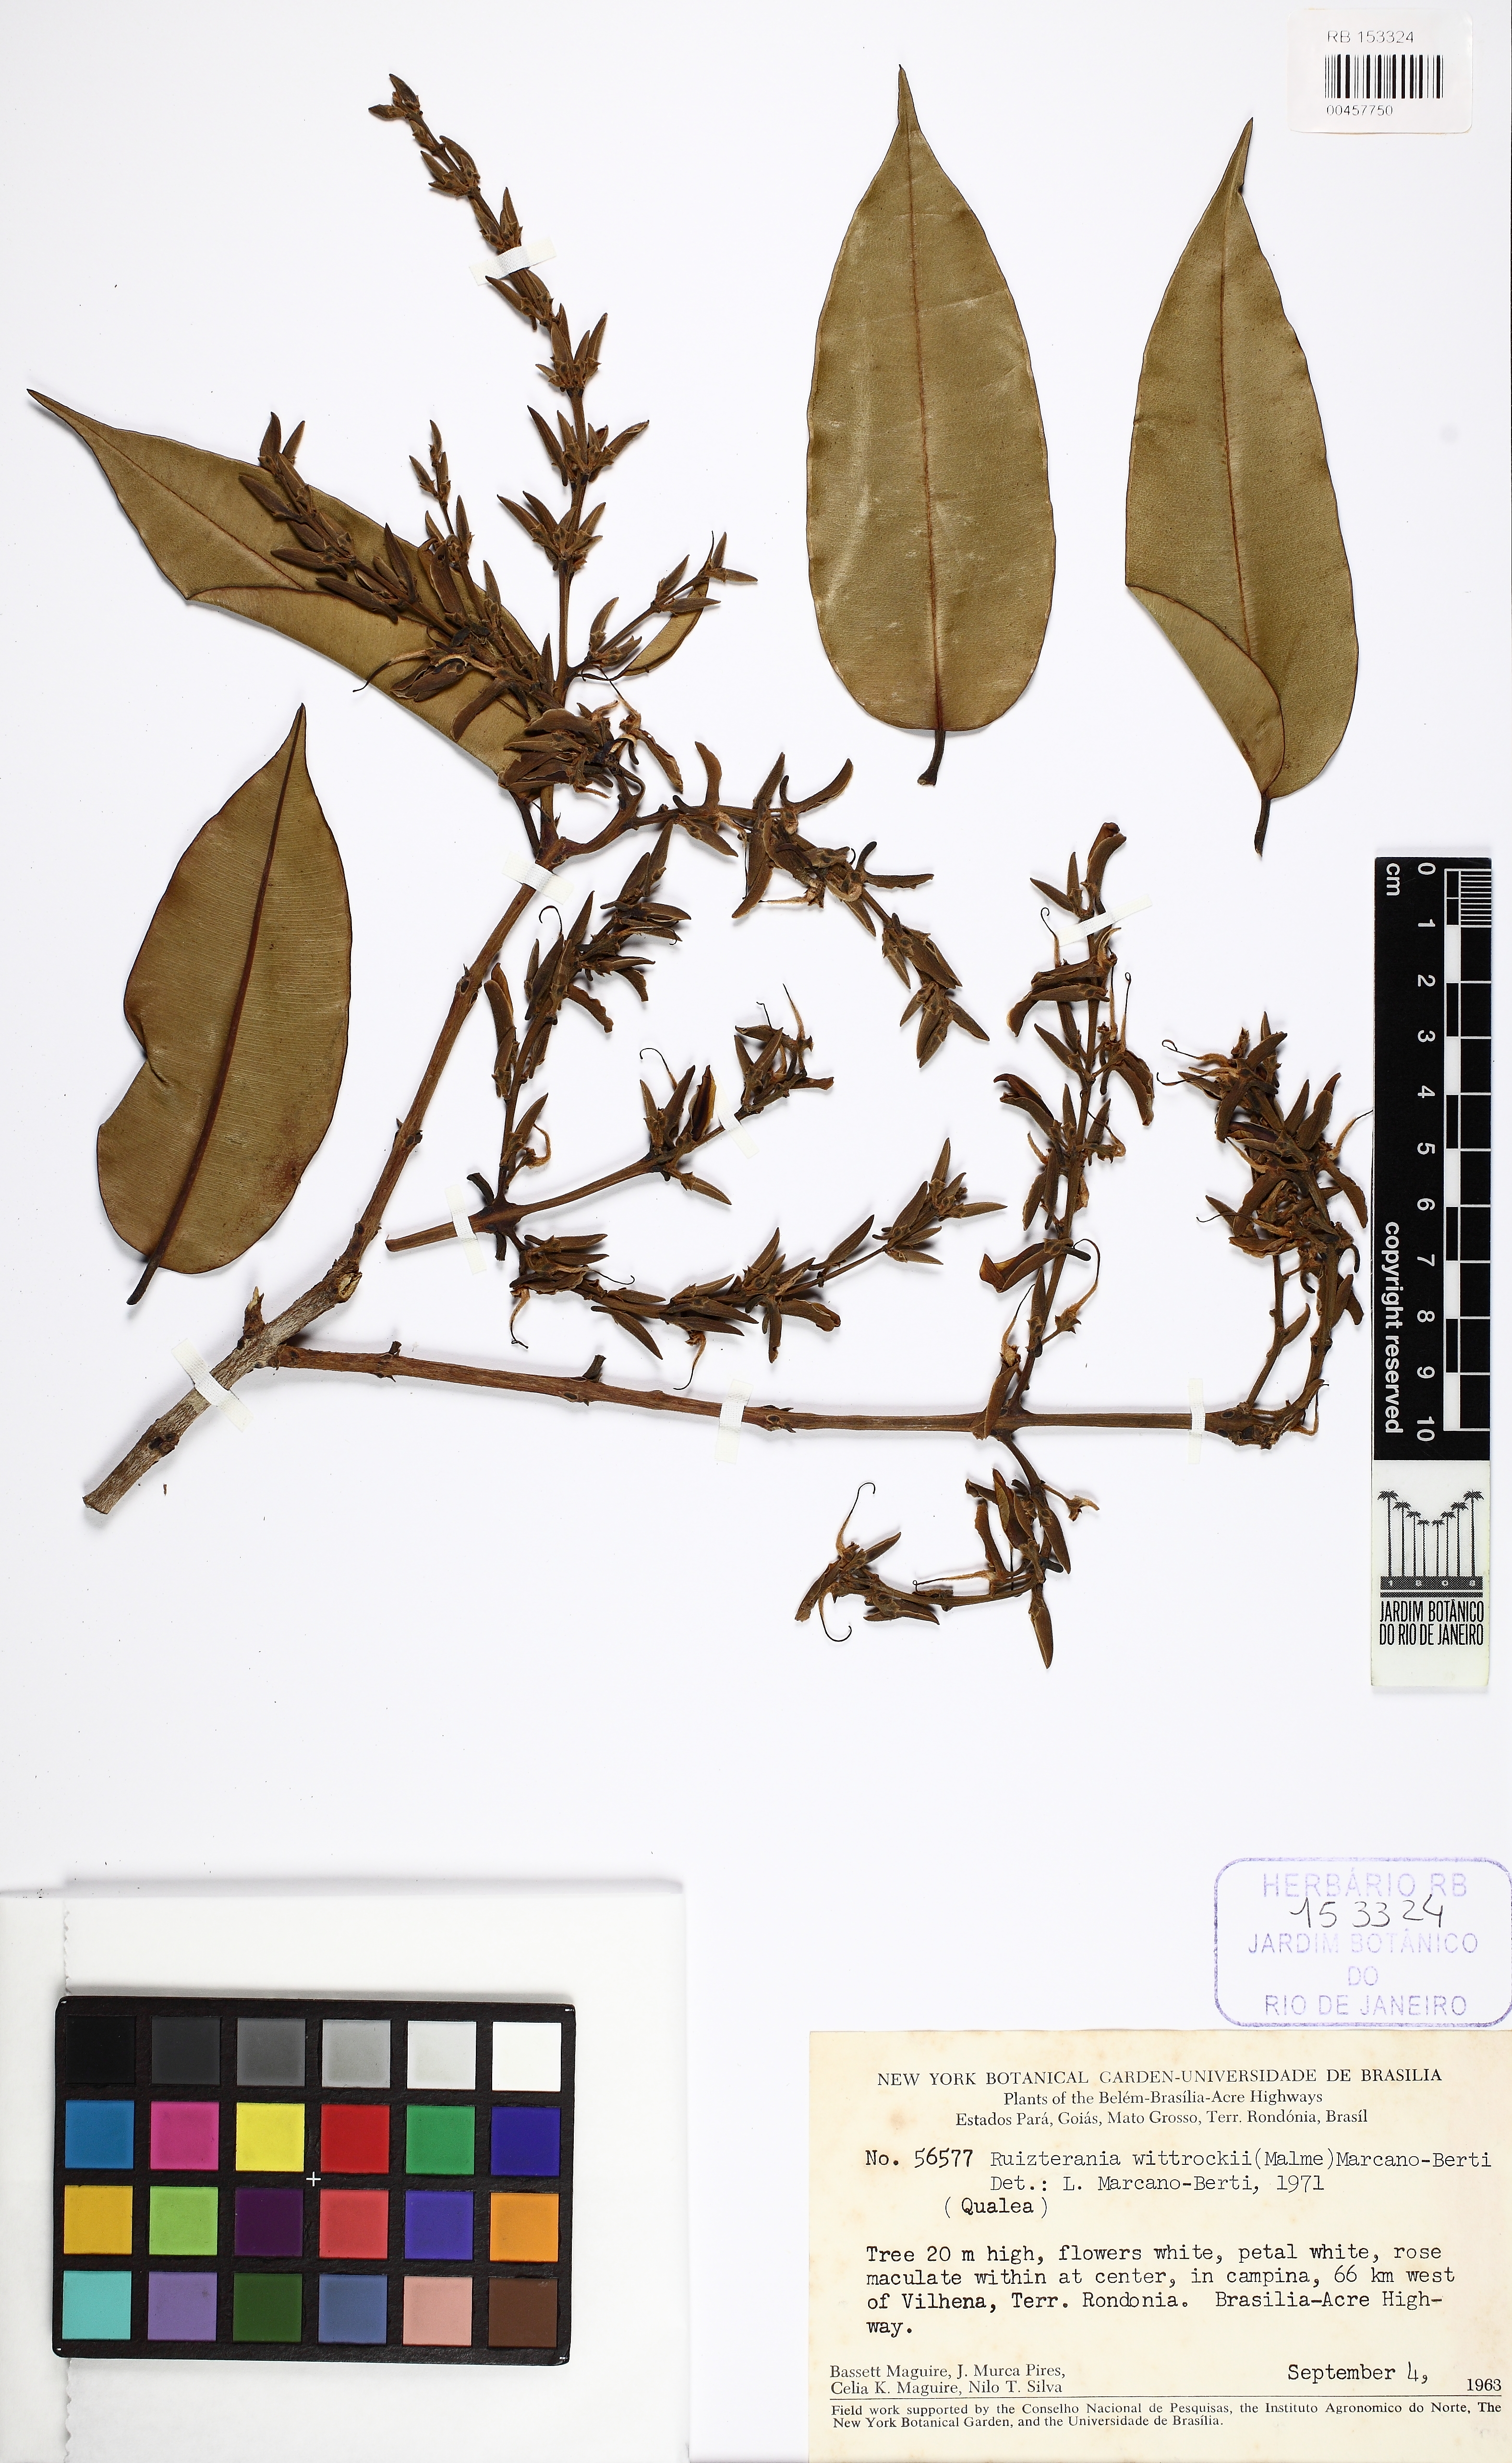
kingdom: Plantae
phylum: Tracheophyta
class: Magnoliopsida
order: Myrtales
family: Vochysiaceae
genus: Ruizterania
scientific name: Ruizterania wittrockii
